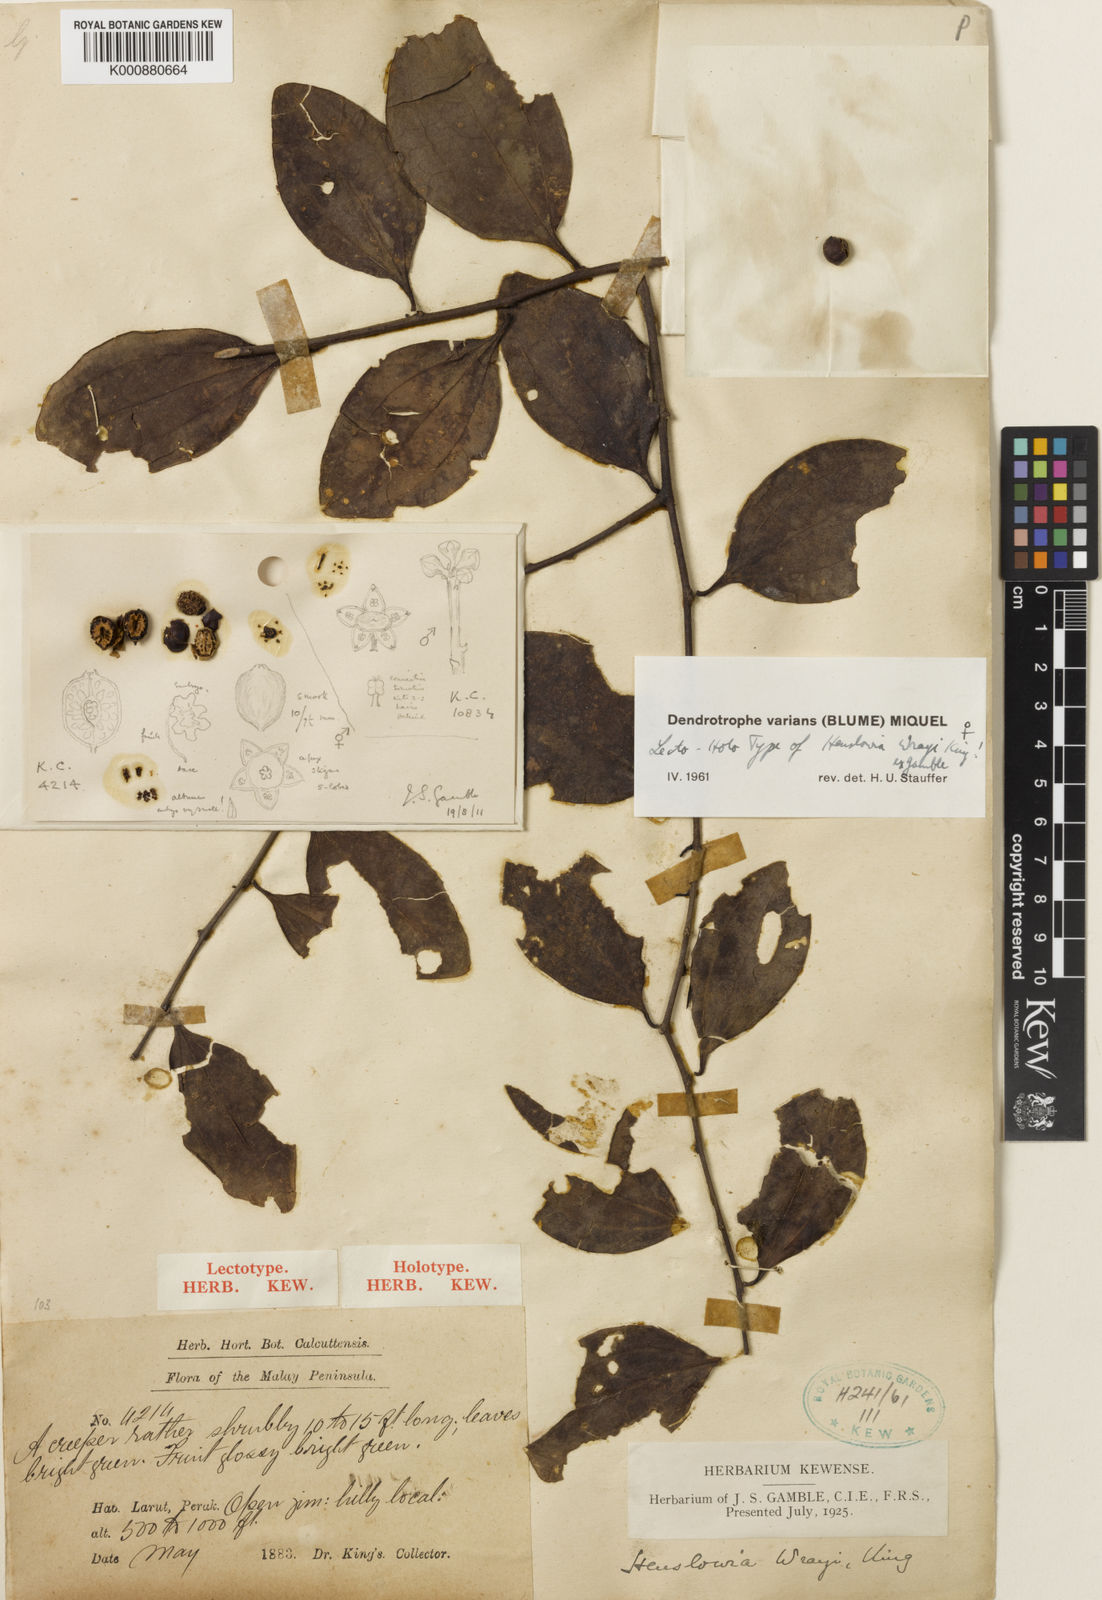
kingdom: Plantae
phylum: Tracheophyta
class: Magnoliopsida
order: Santalales
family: Amphorogynaceae
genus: Dendrotrophe
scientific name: Dendrotrophe varians
